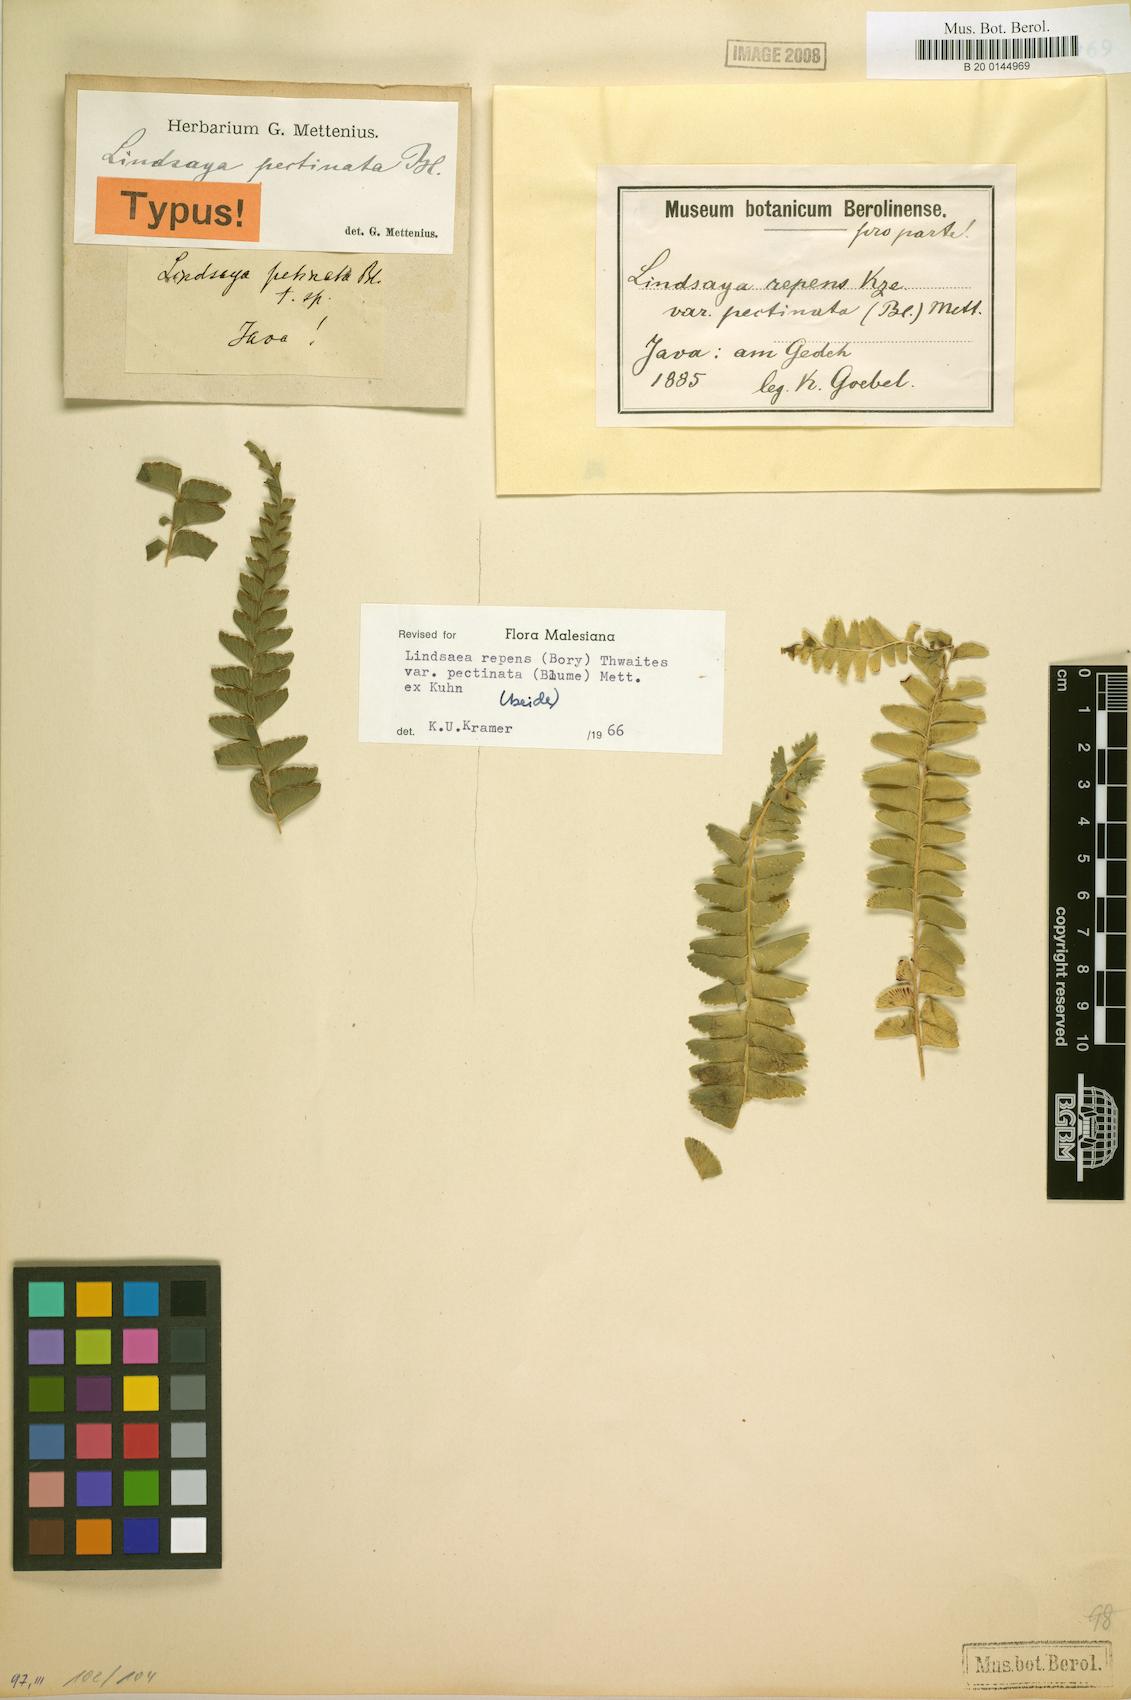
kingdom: Plantae
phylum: Tracheophyta
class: Polypodiopsida
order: Polypodiales
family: Lindsaeaceae
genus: Lindsaea
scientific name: Lindsaea pectinata
